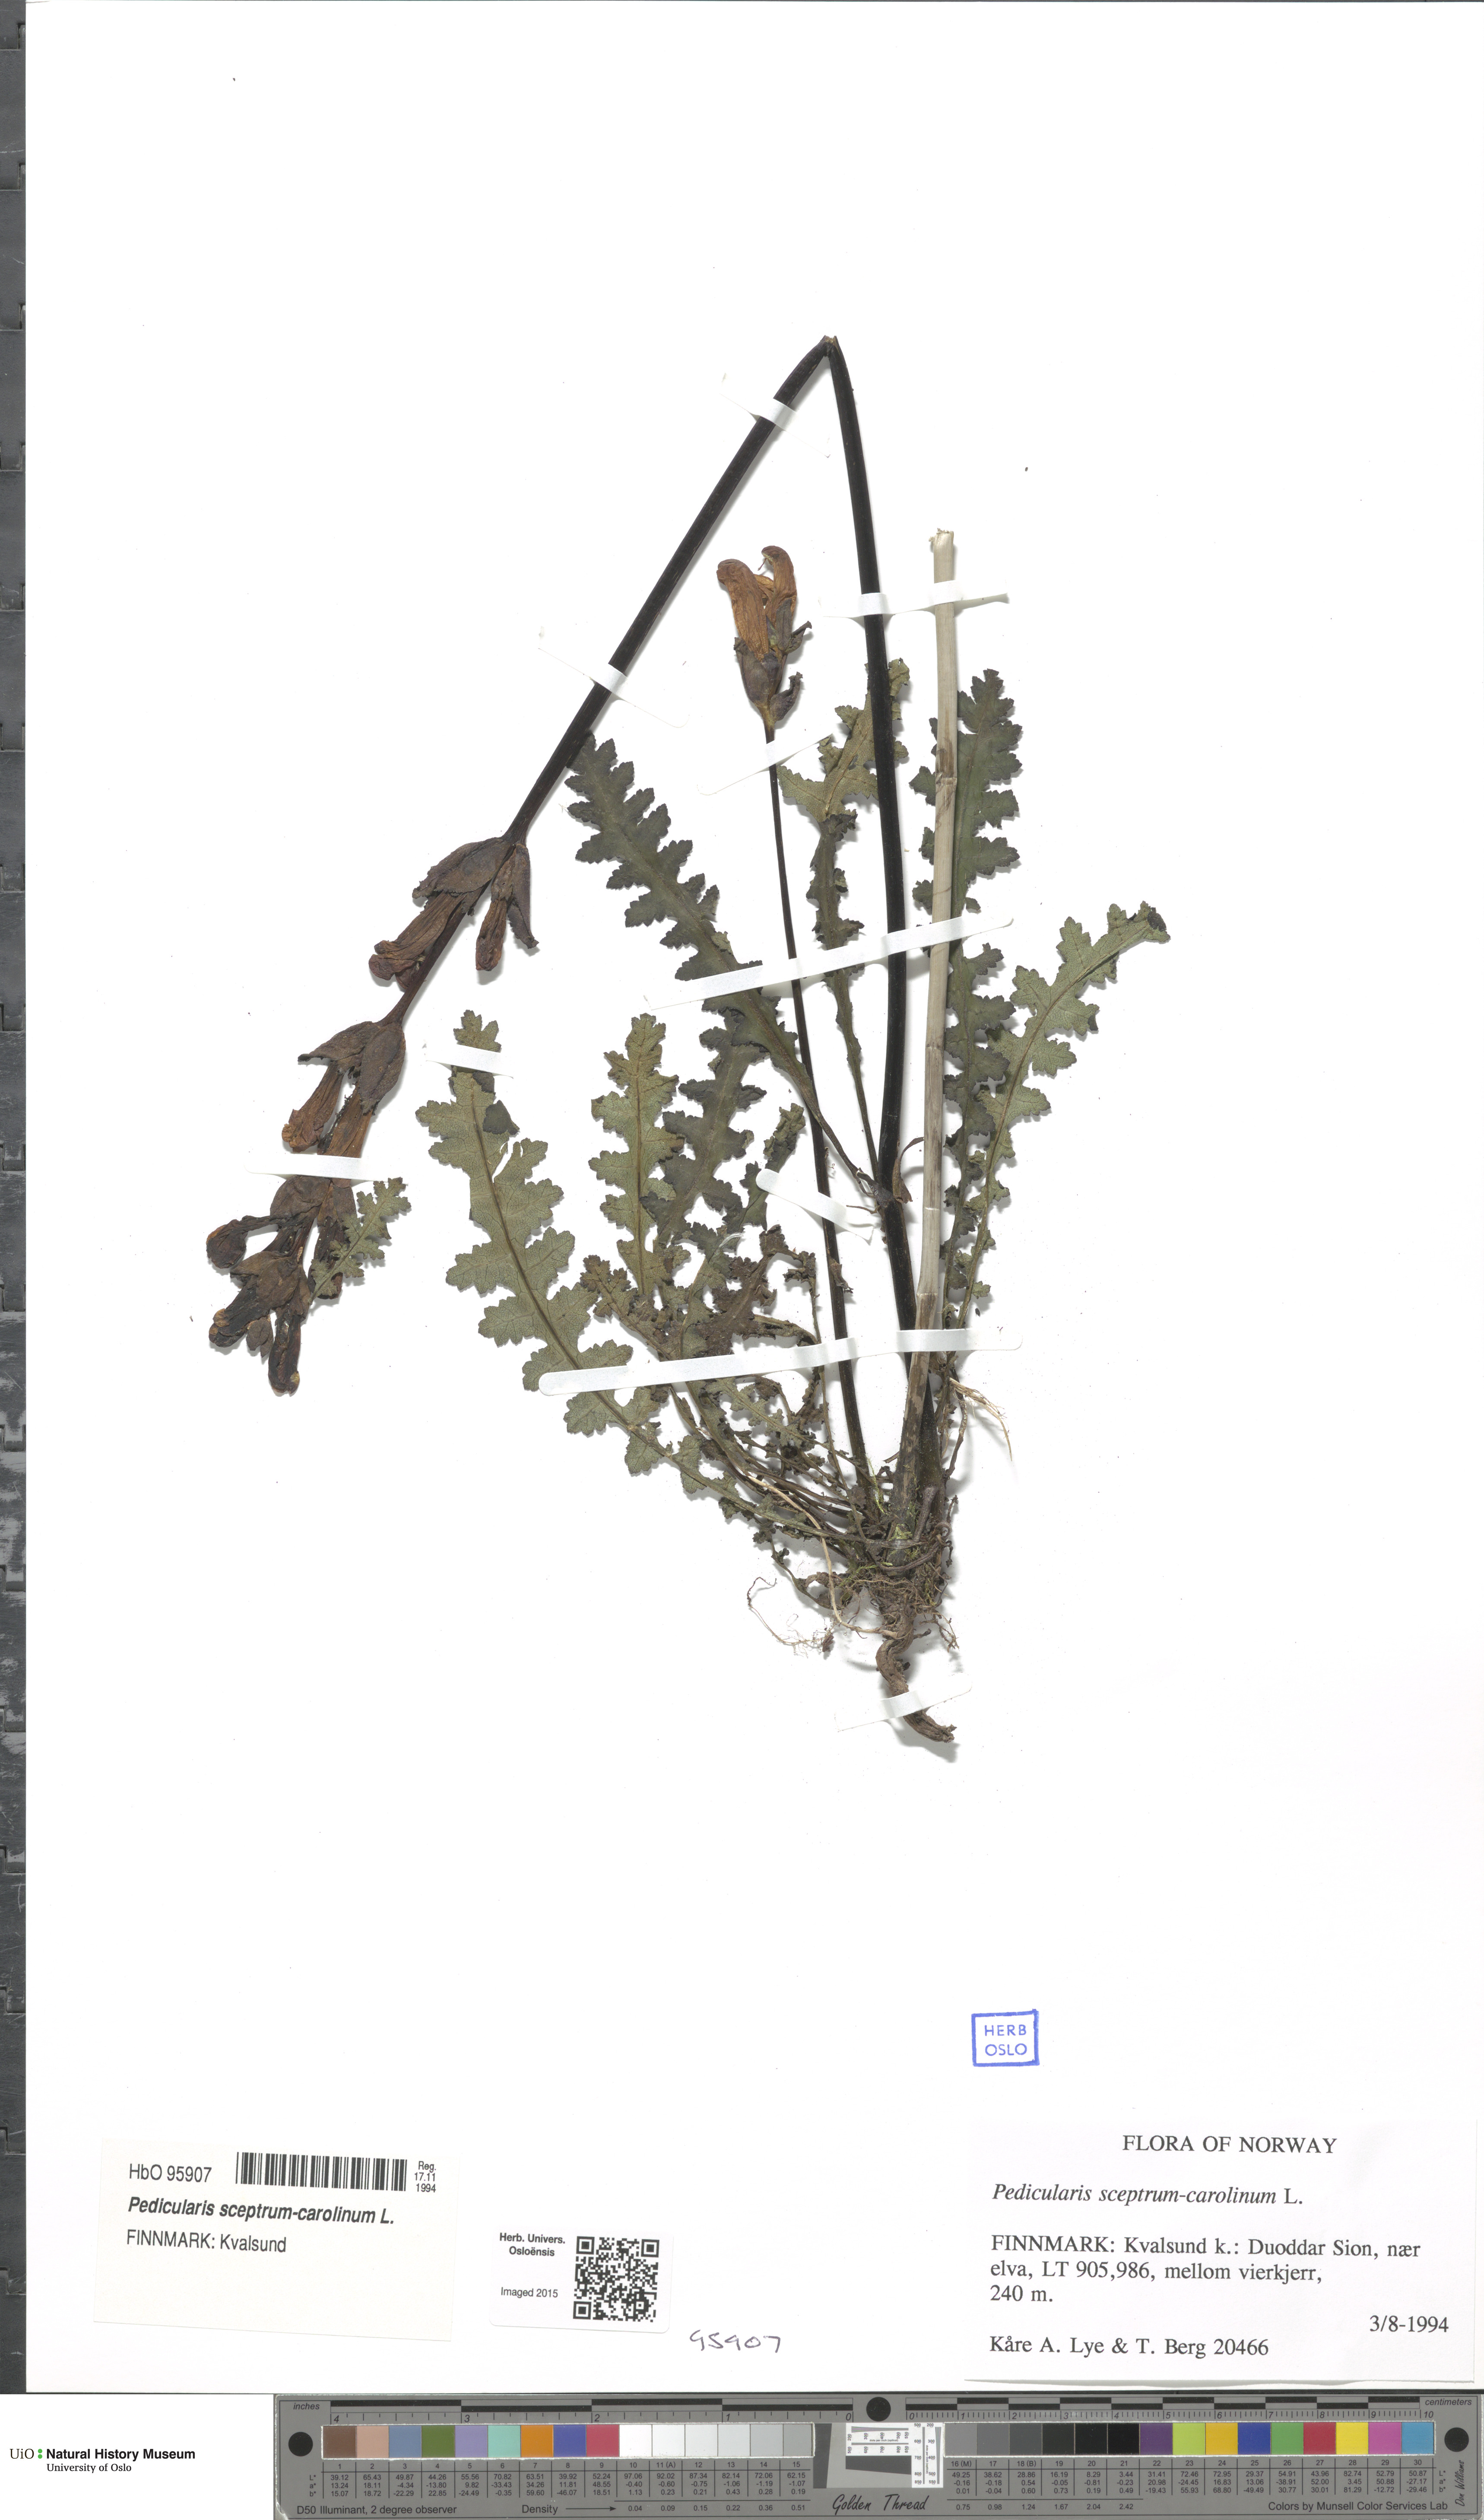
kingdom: Plantae
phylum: Tracheophyta
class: Magnoliopsida
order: Lamiales
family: Orobanchaceae
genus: Pedicularis
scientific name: Pedicularis sceptrum-carolinum
